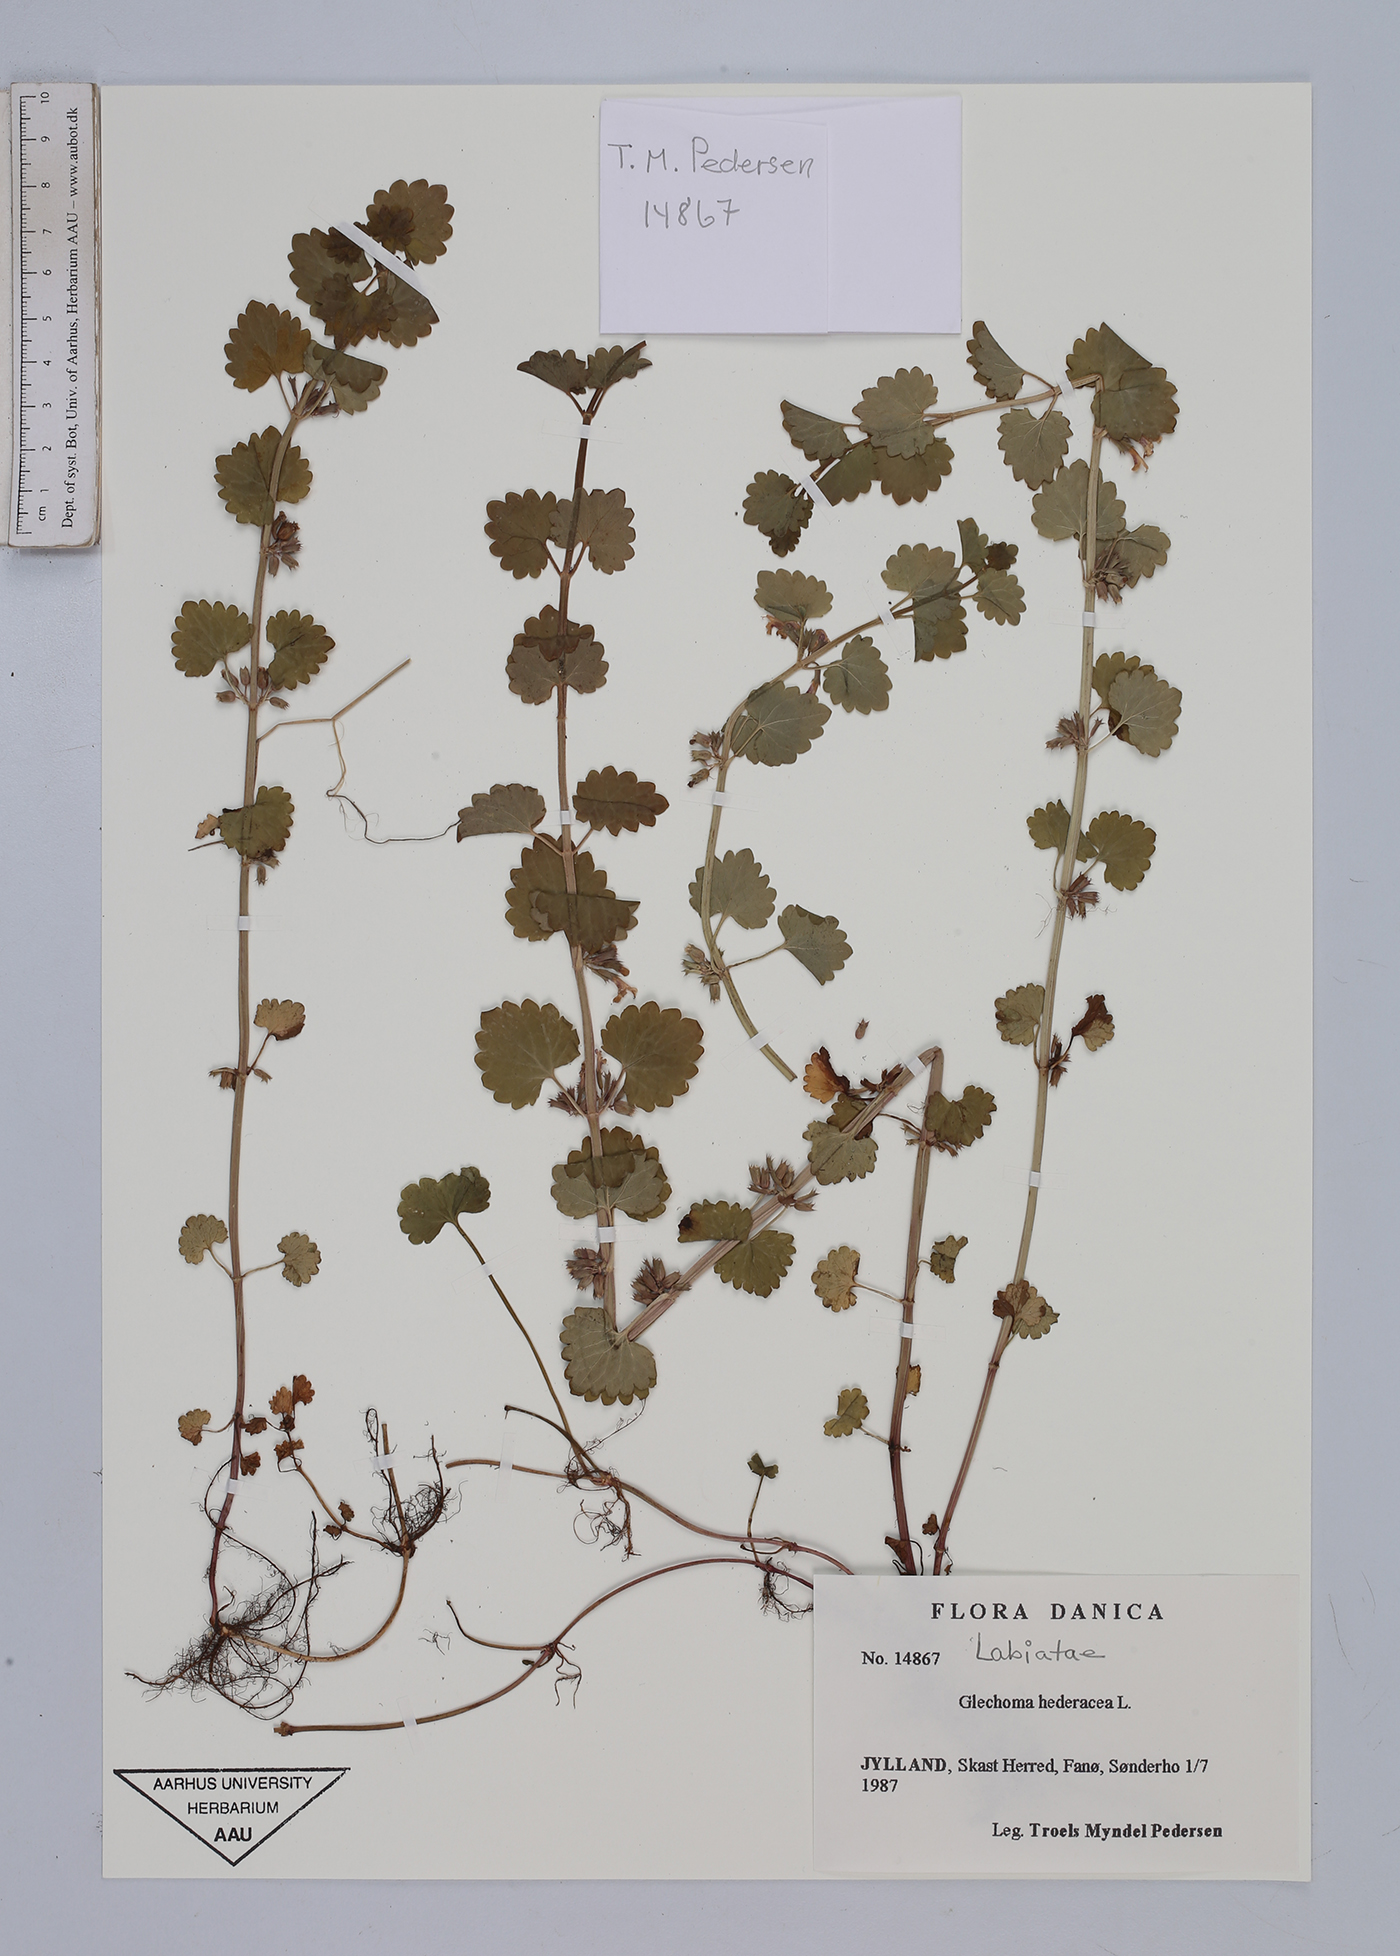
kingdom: Plantae
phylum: Tracheophyta
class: Magnoliopsida
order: Lamiales
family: Lamiaceae
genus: Glechoma
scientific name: Glechoma hederacea
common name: Ground ivy
